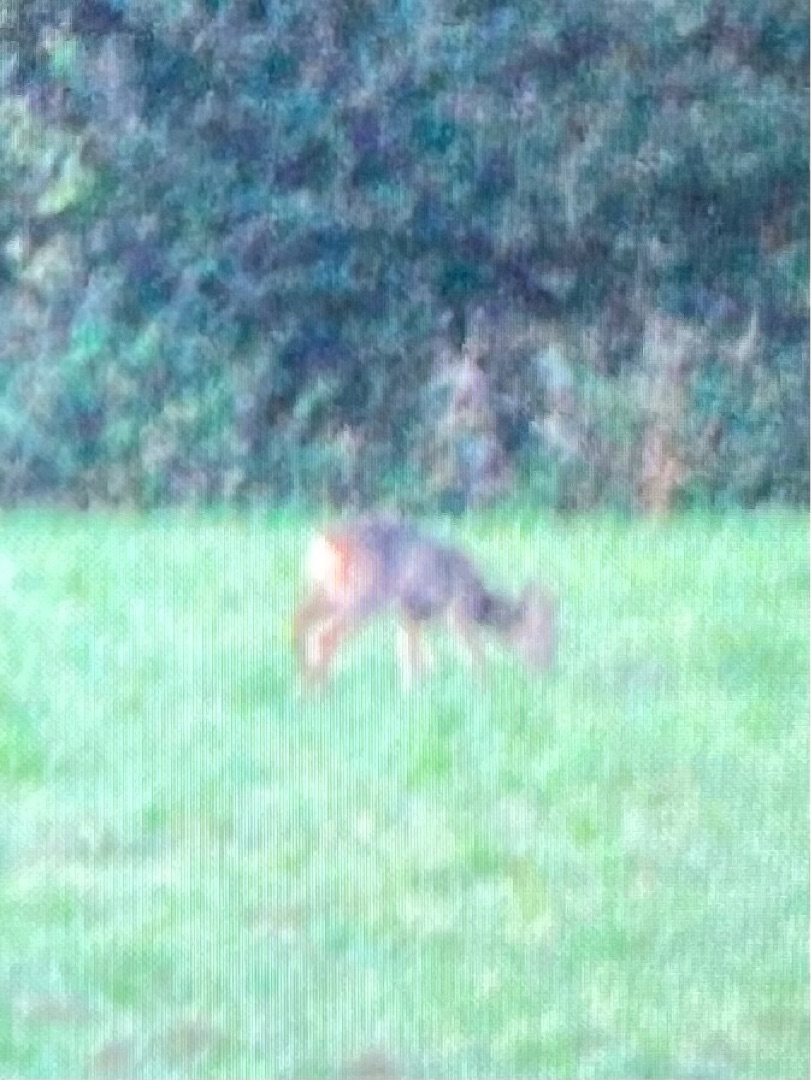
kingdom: Animalia
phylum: Chordata
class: Mammalia
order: Artiodactyla
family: Cervidae
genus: Capreolus
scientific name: Capreolus capreolus
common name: Rådyr
